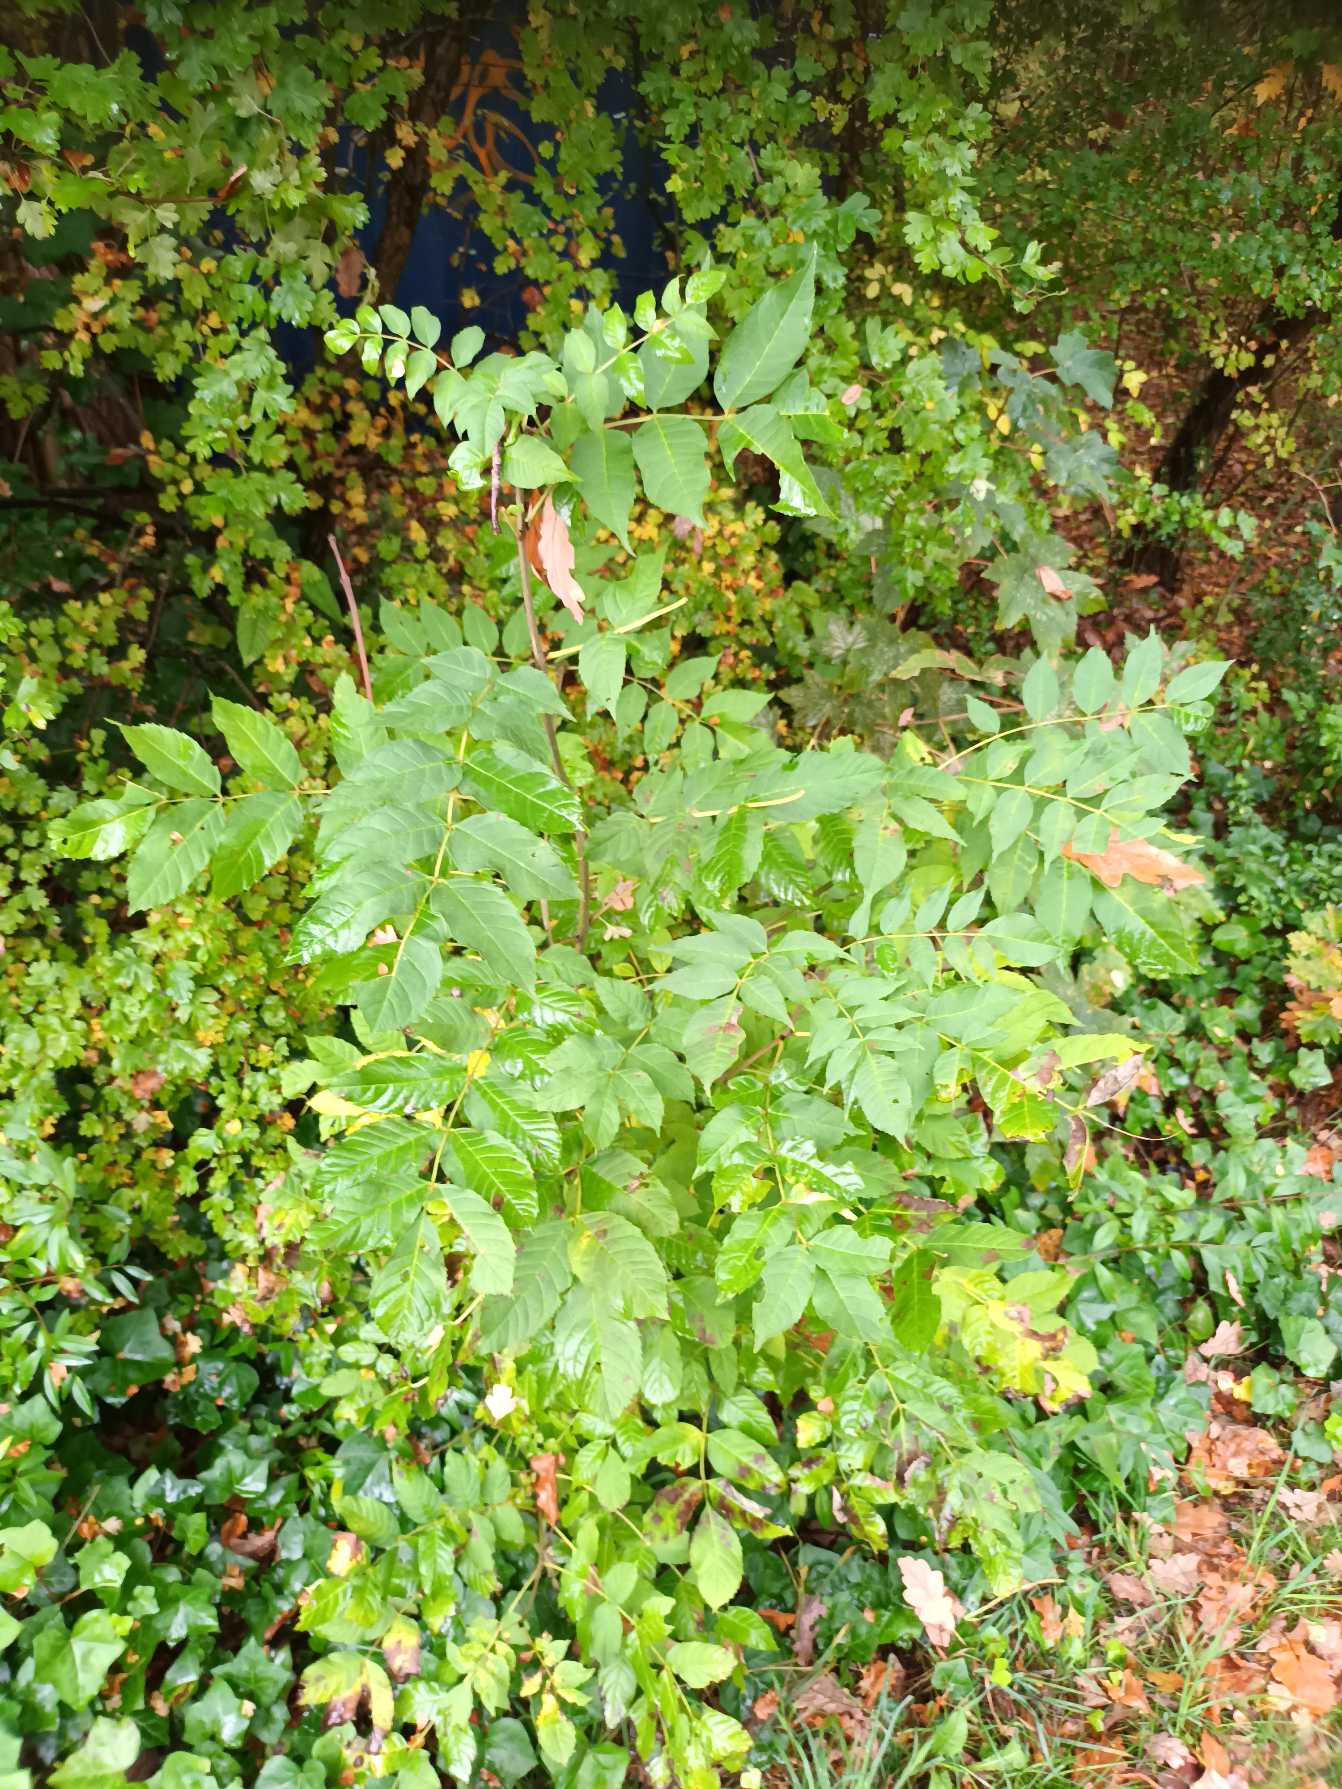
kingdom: Plantae
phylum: Tracheophyta
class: Magnoliopsida
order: Lamiales
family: Oleaceae
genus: Fraxinus
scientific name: Fraxinus excelsior
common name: Ask
